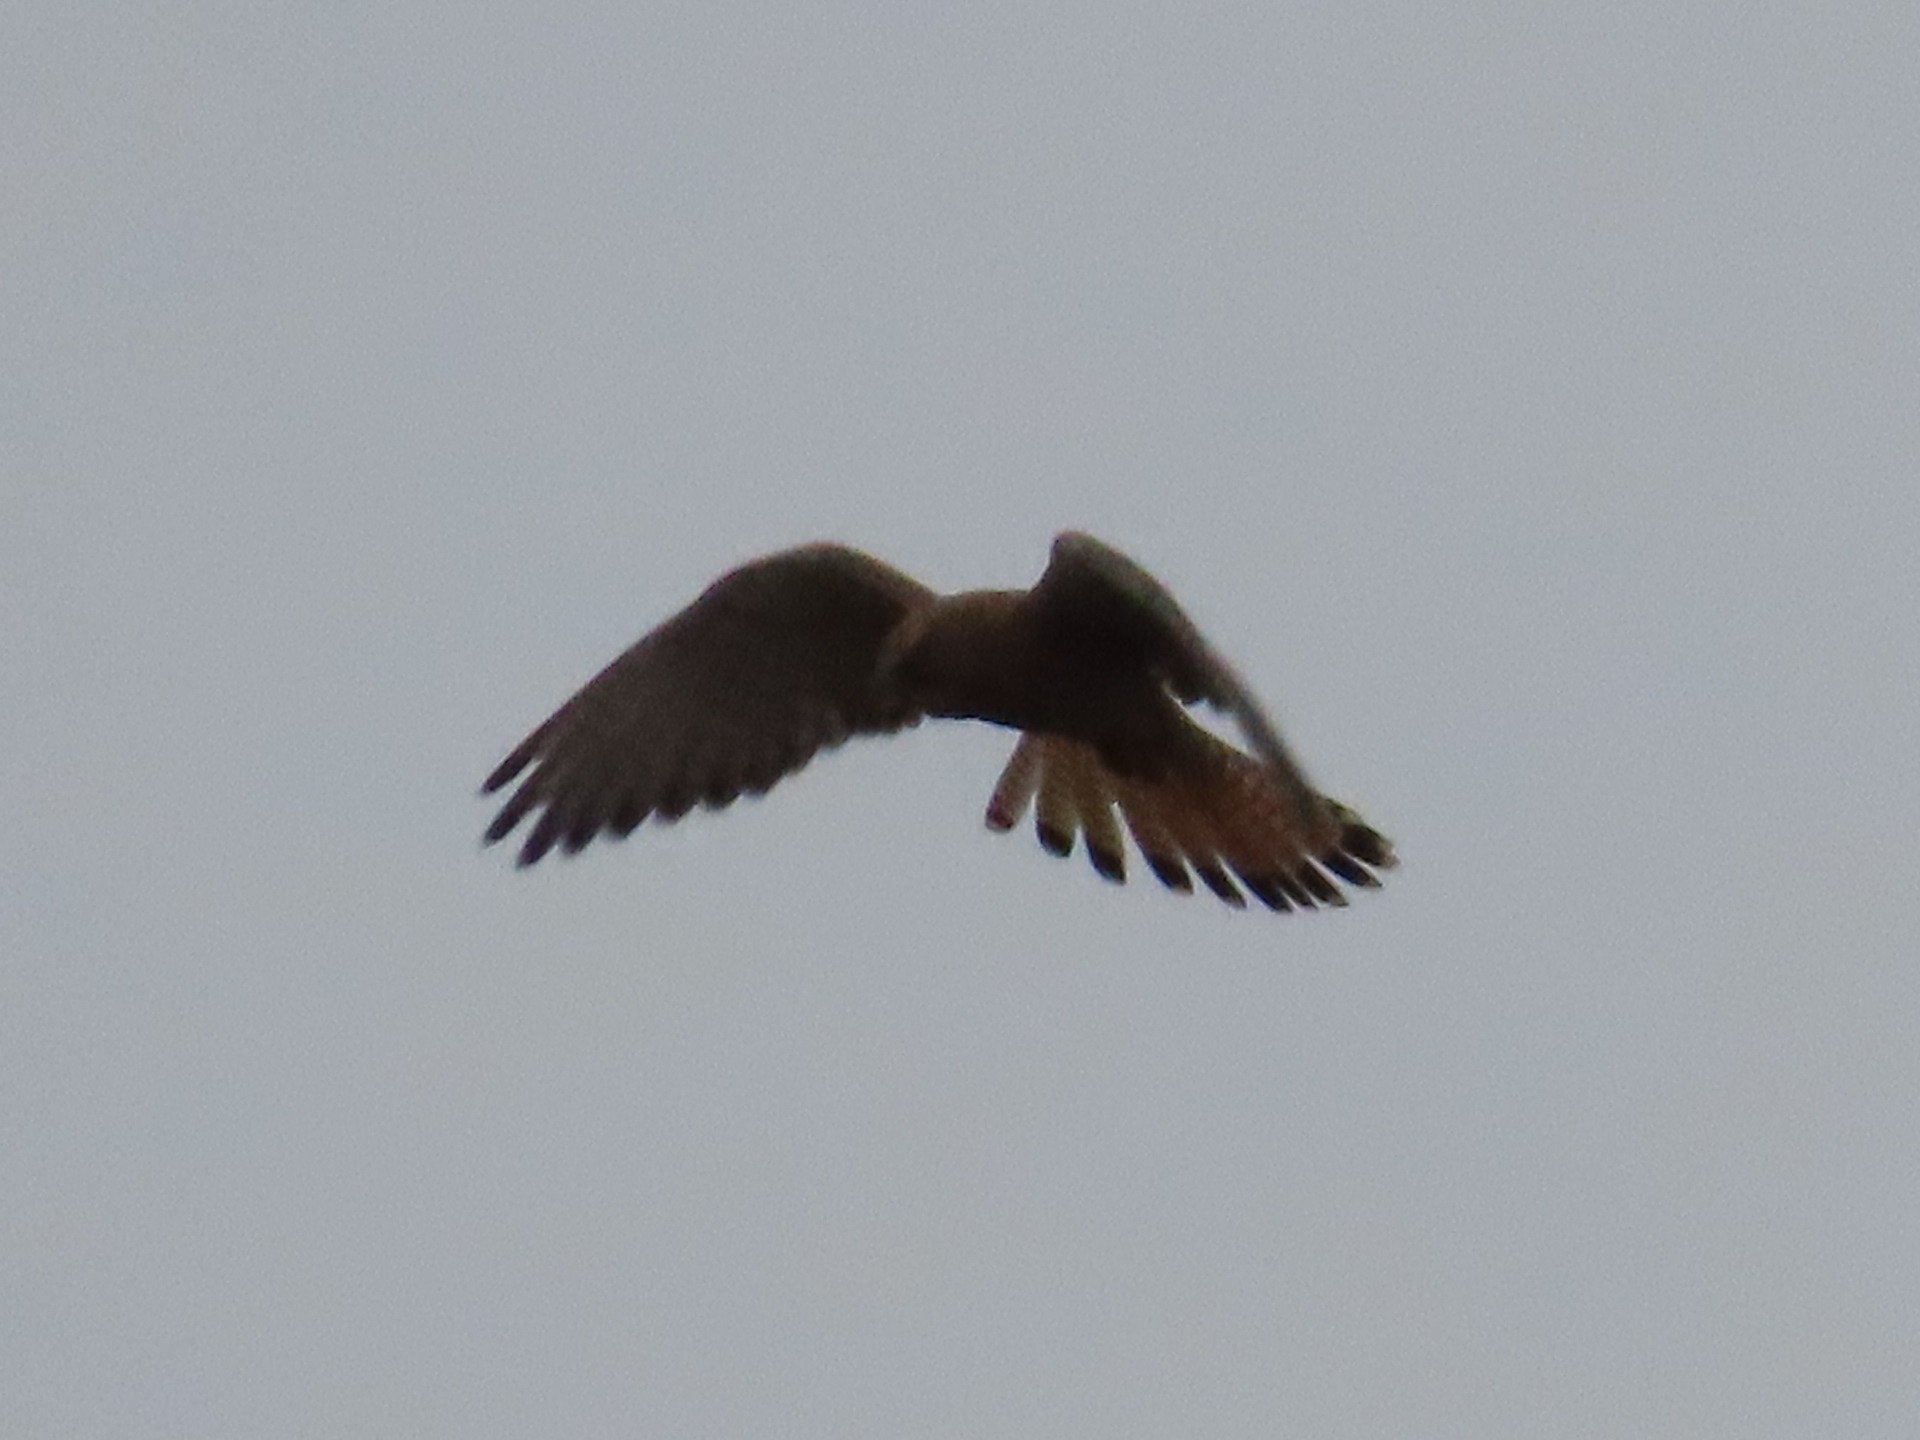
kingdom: Animalia
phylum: Chordata
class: Aves
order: Falconiformes
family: Falconidae
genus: Falco
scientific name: Falco tinnunculus
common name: Tårnfalk
